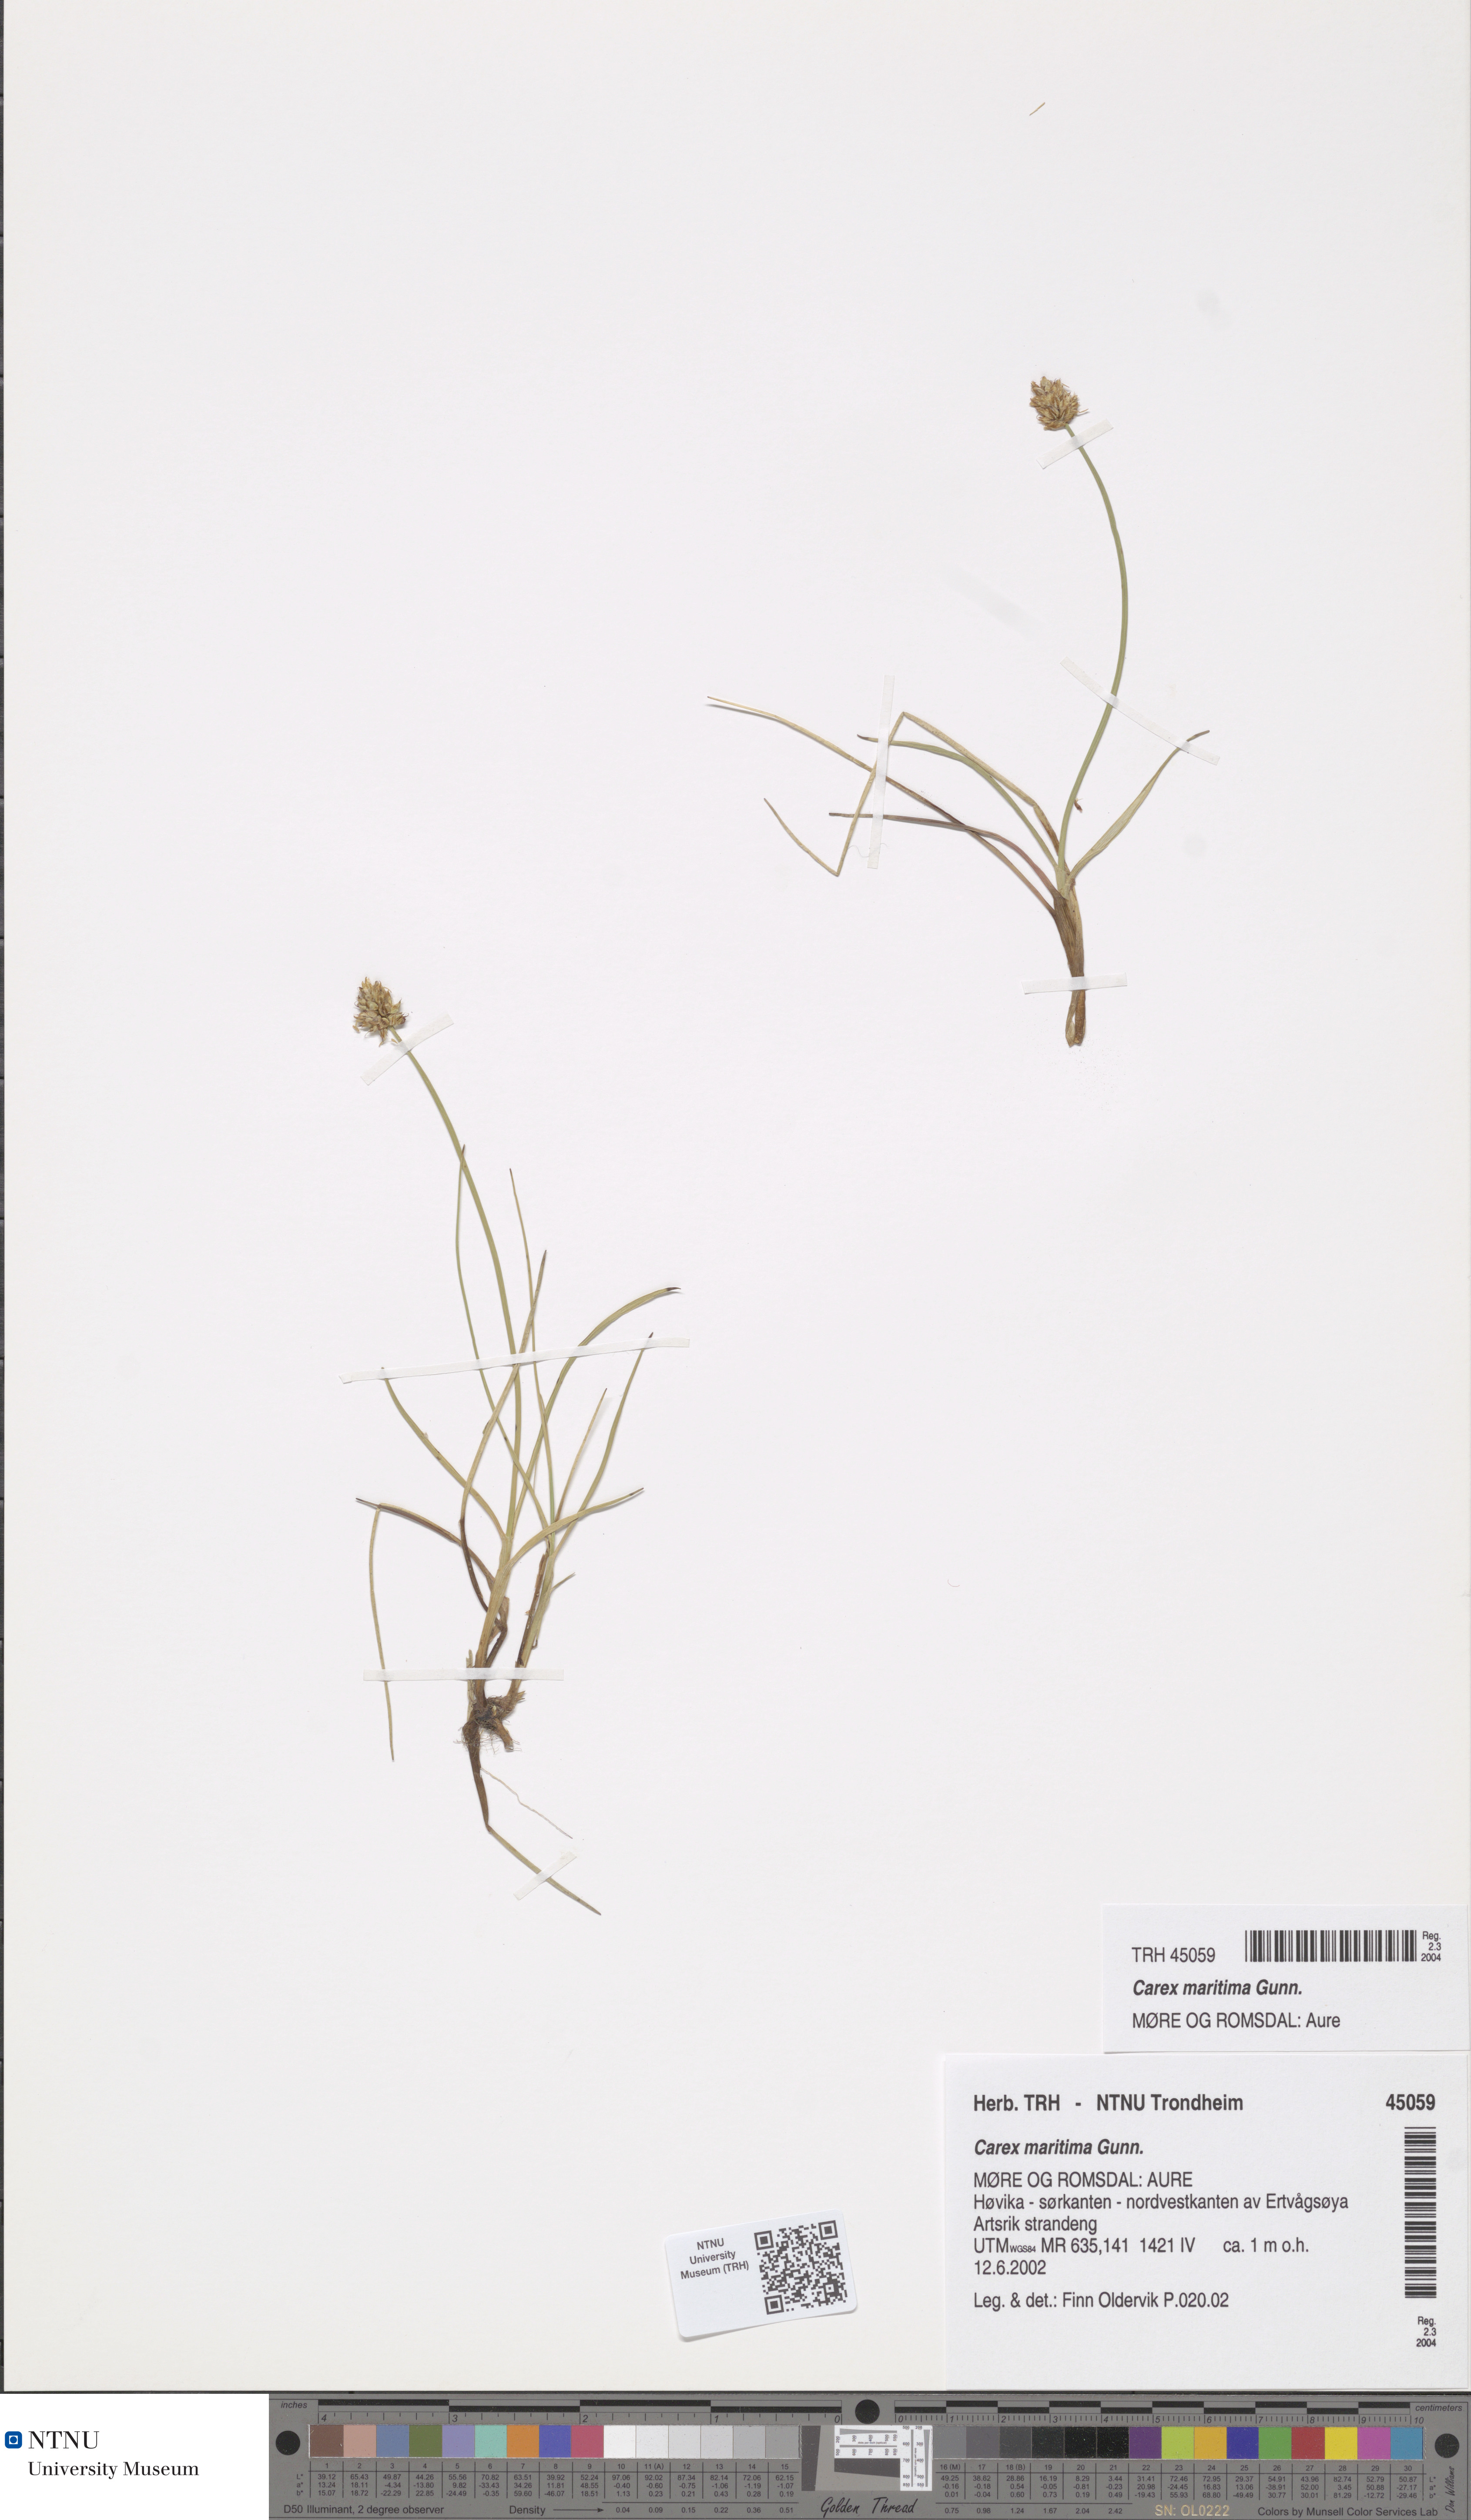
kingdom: Plantae
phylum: Tracheophyta
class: Liliopsida
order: Poales
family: Cyperaceae
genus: Carex
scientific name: Carex maritima
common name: Curved sedge
